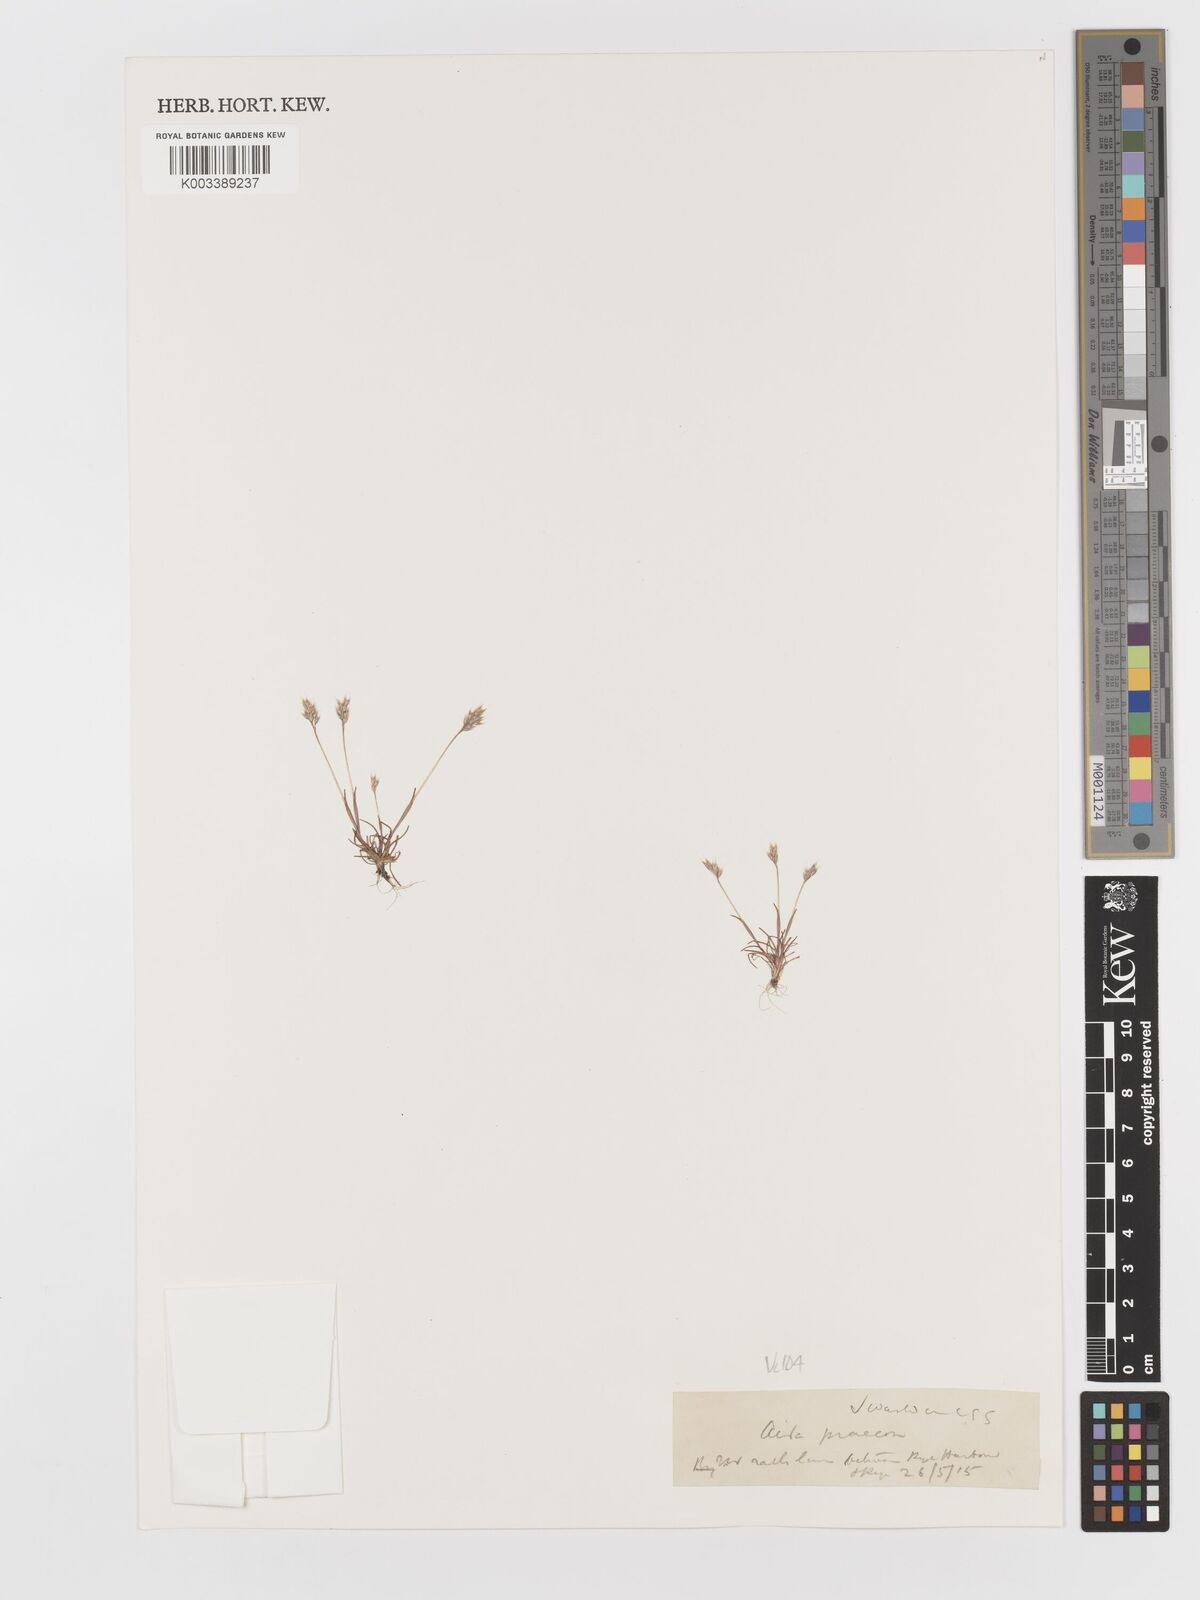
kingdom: Plantae
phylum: Tracheophyta
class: Liliopsida
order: Poales
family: Poaceae
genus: Aira
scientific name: Aira praecox
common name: Early hair-grass
